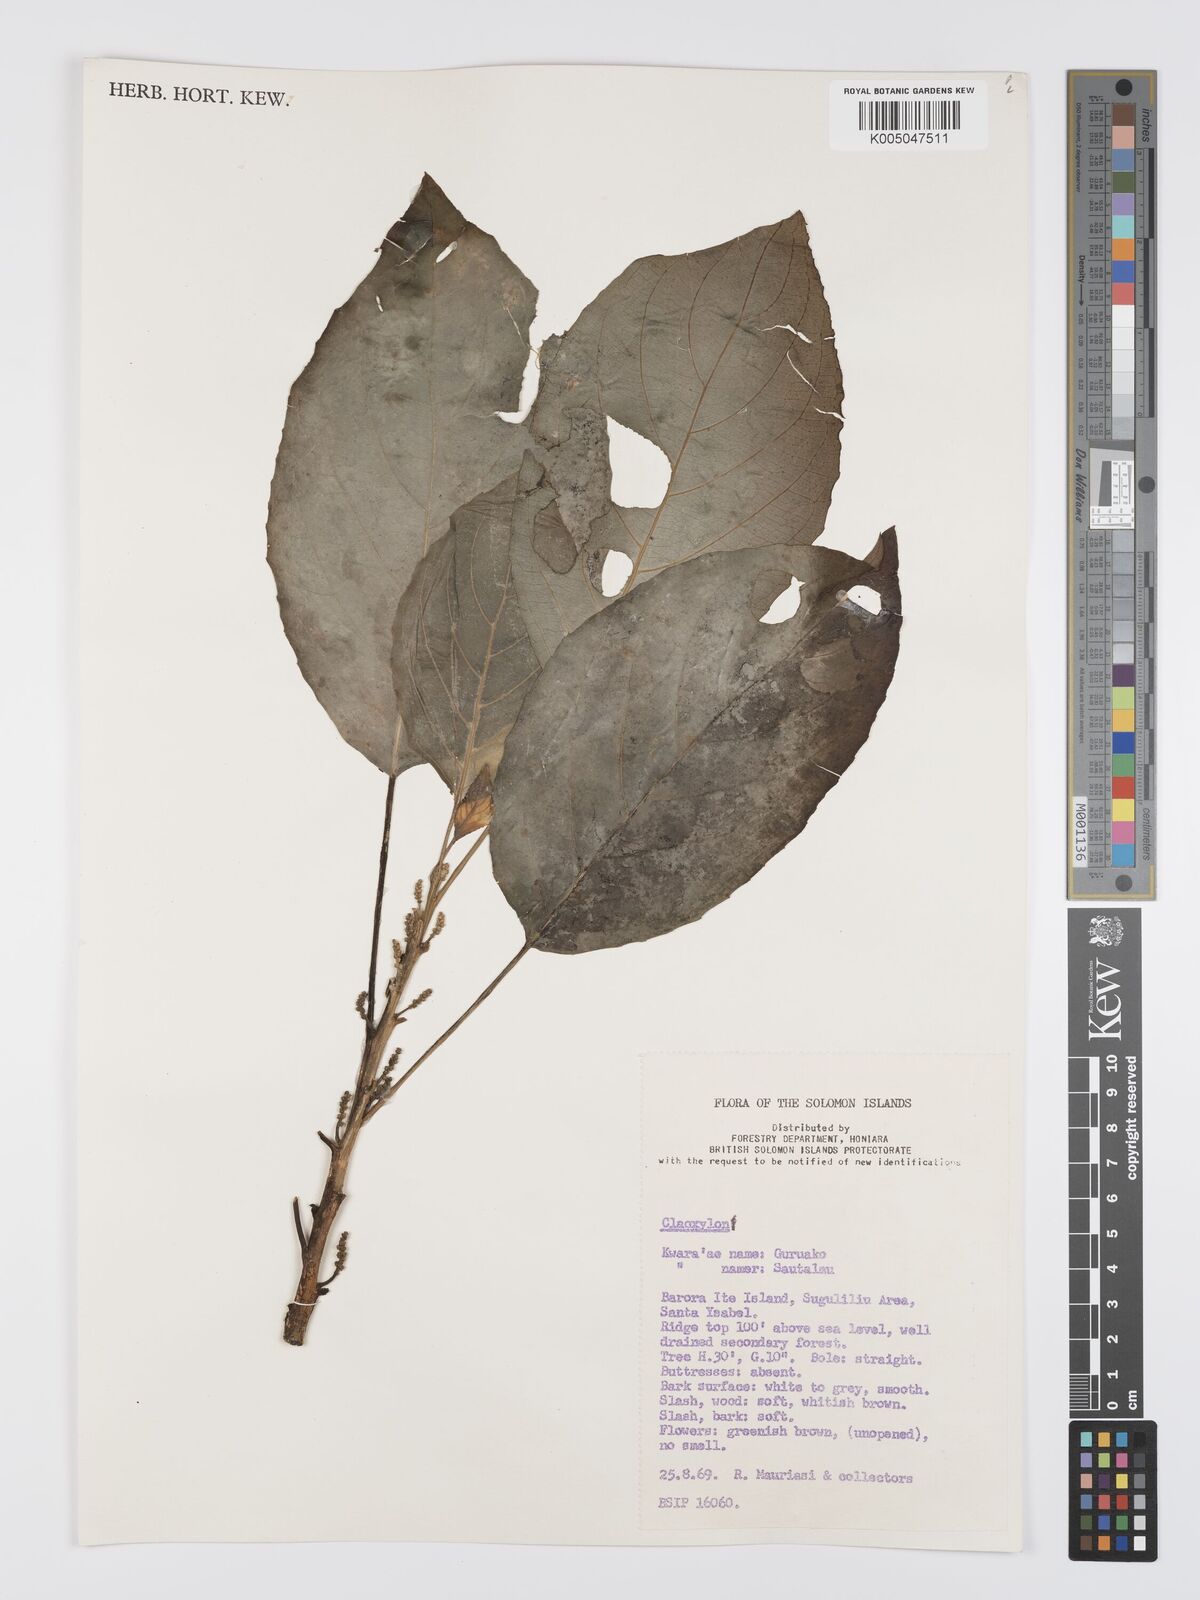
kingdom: Plantae
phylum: Tracheophyta
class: Magnoliopsida
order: Malpighiales
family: Euphorbiaceae
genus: Claoxylon
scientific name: Claoxylon carolinianum
